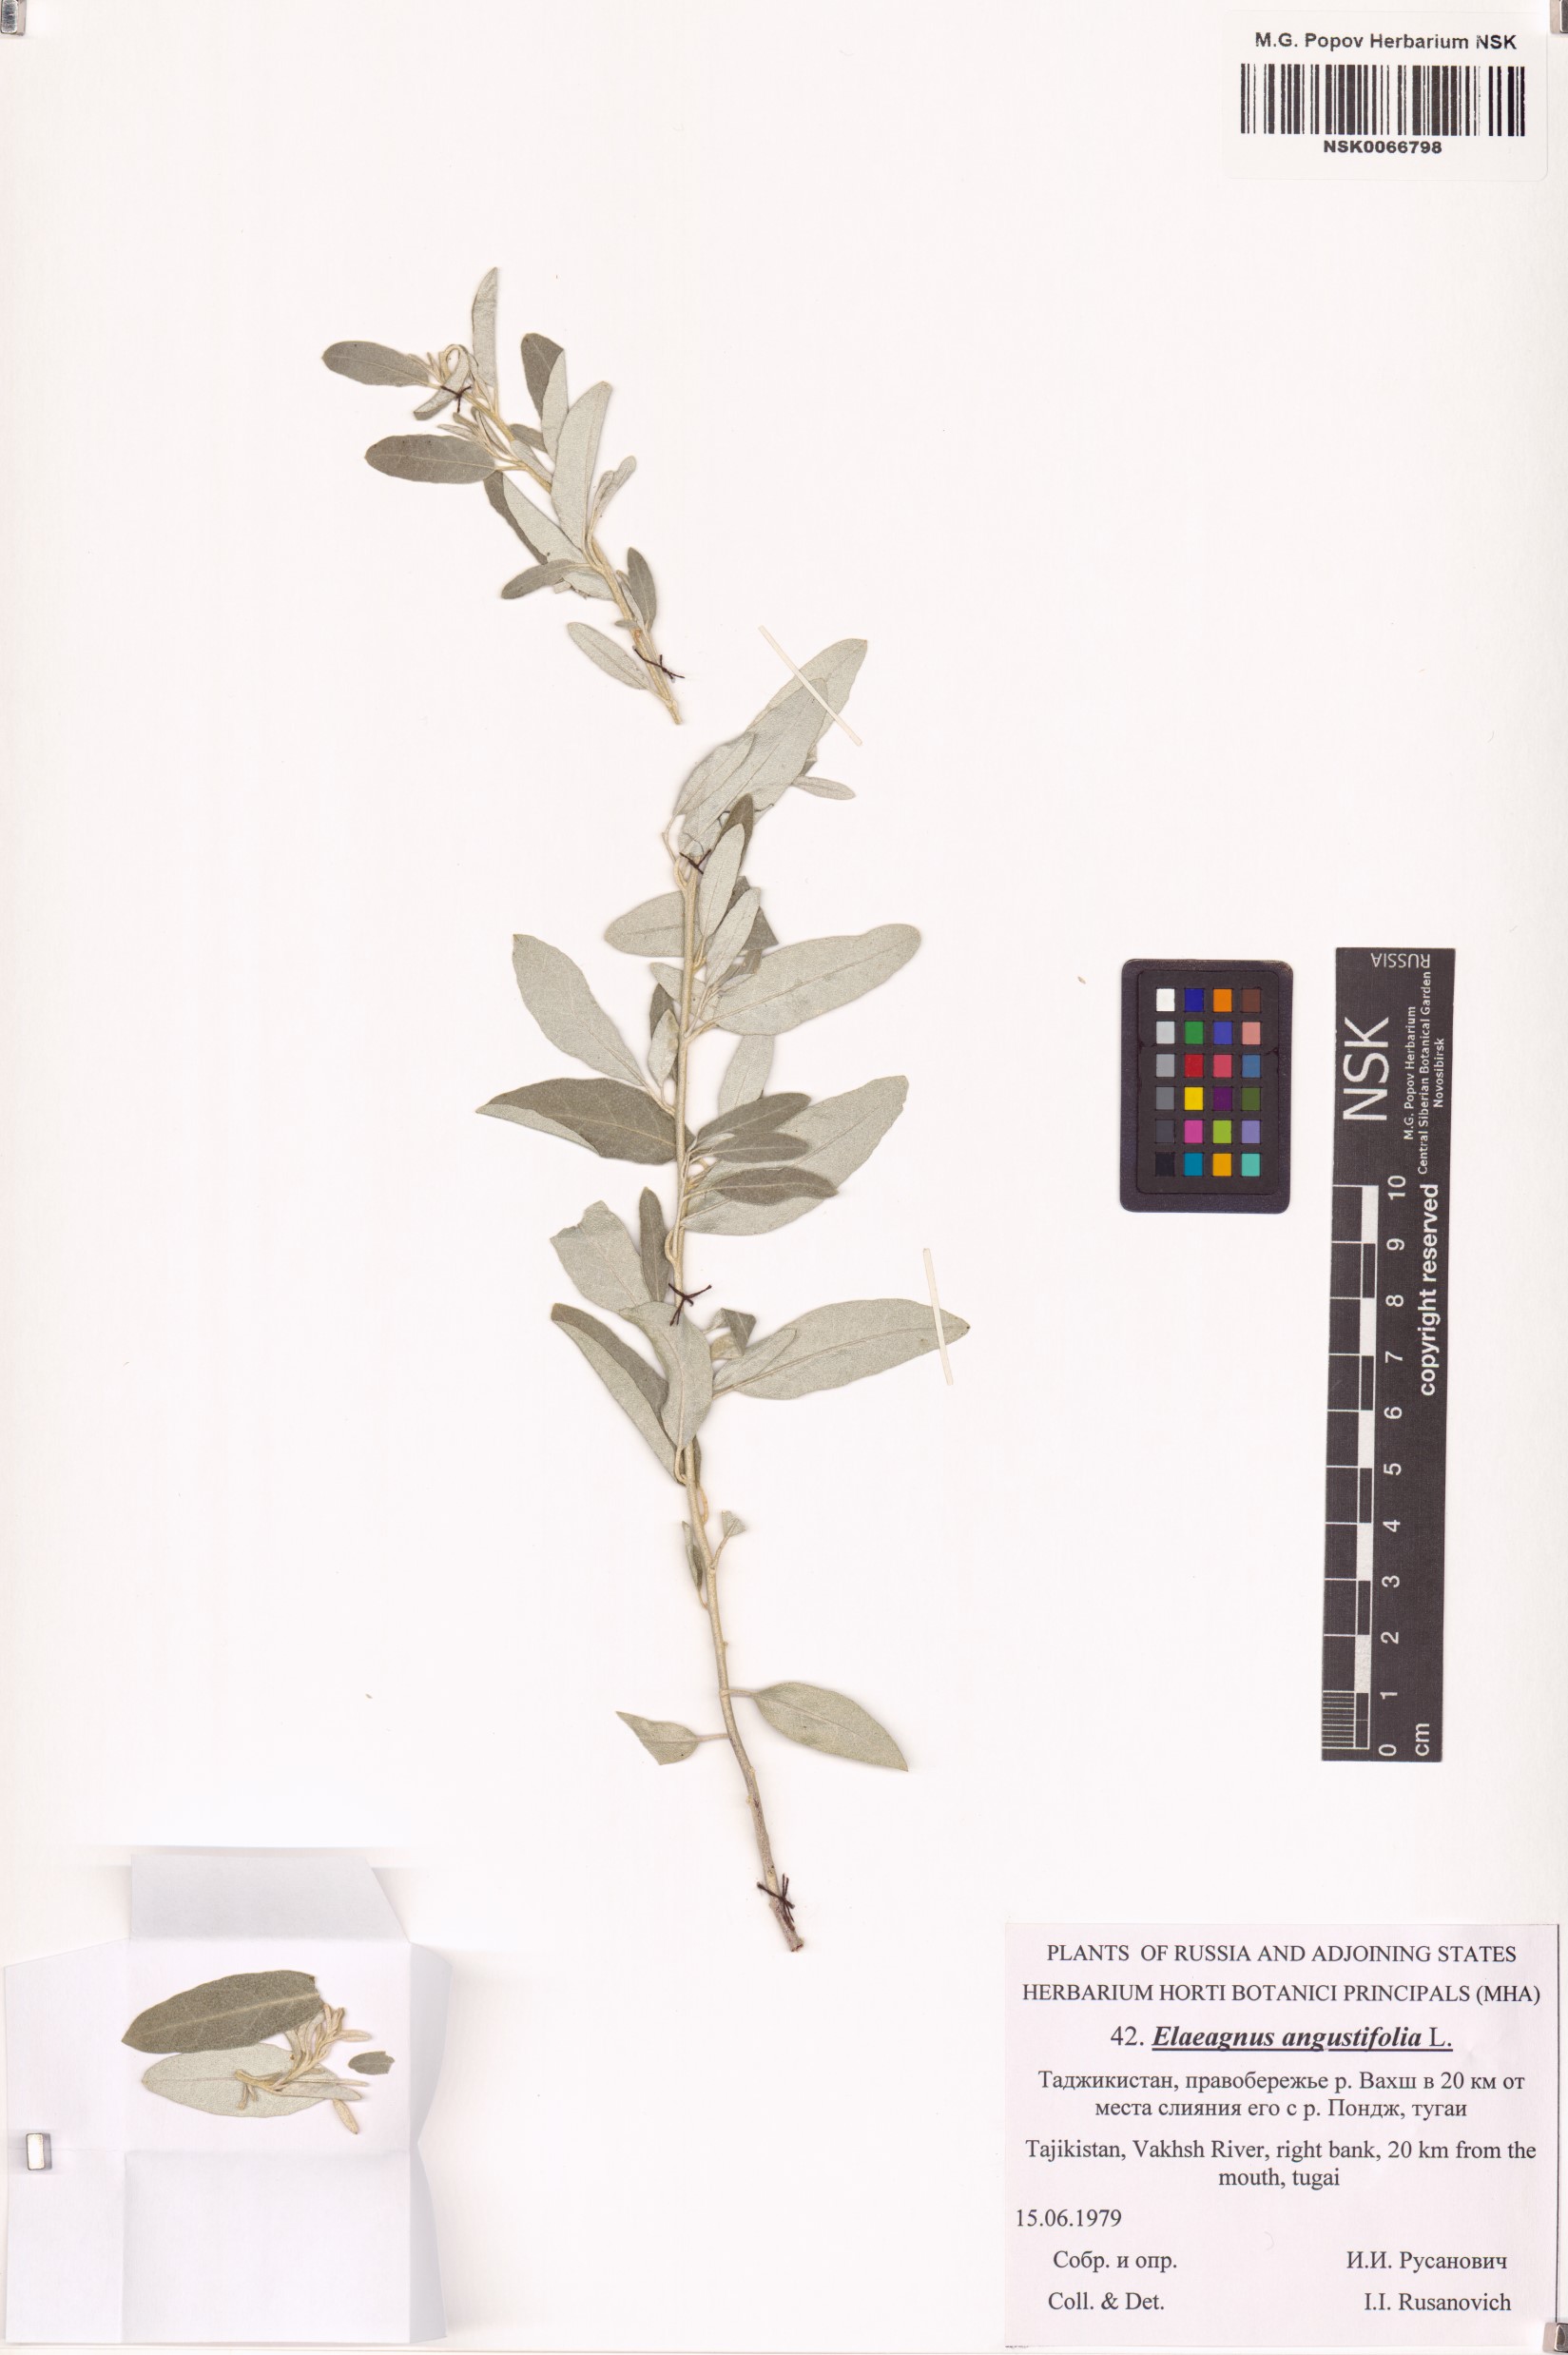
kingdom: Plantae
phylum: Tracheophyta
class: Magnoliopsida
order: Rosales
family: Elaeagnaceae
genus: Elaeagnus
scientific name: Elaeagnus angustifolia
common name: Russian olive
